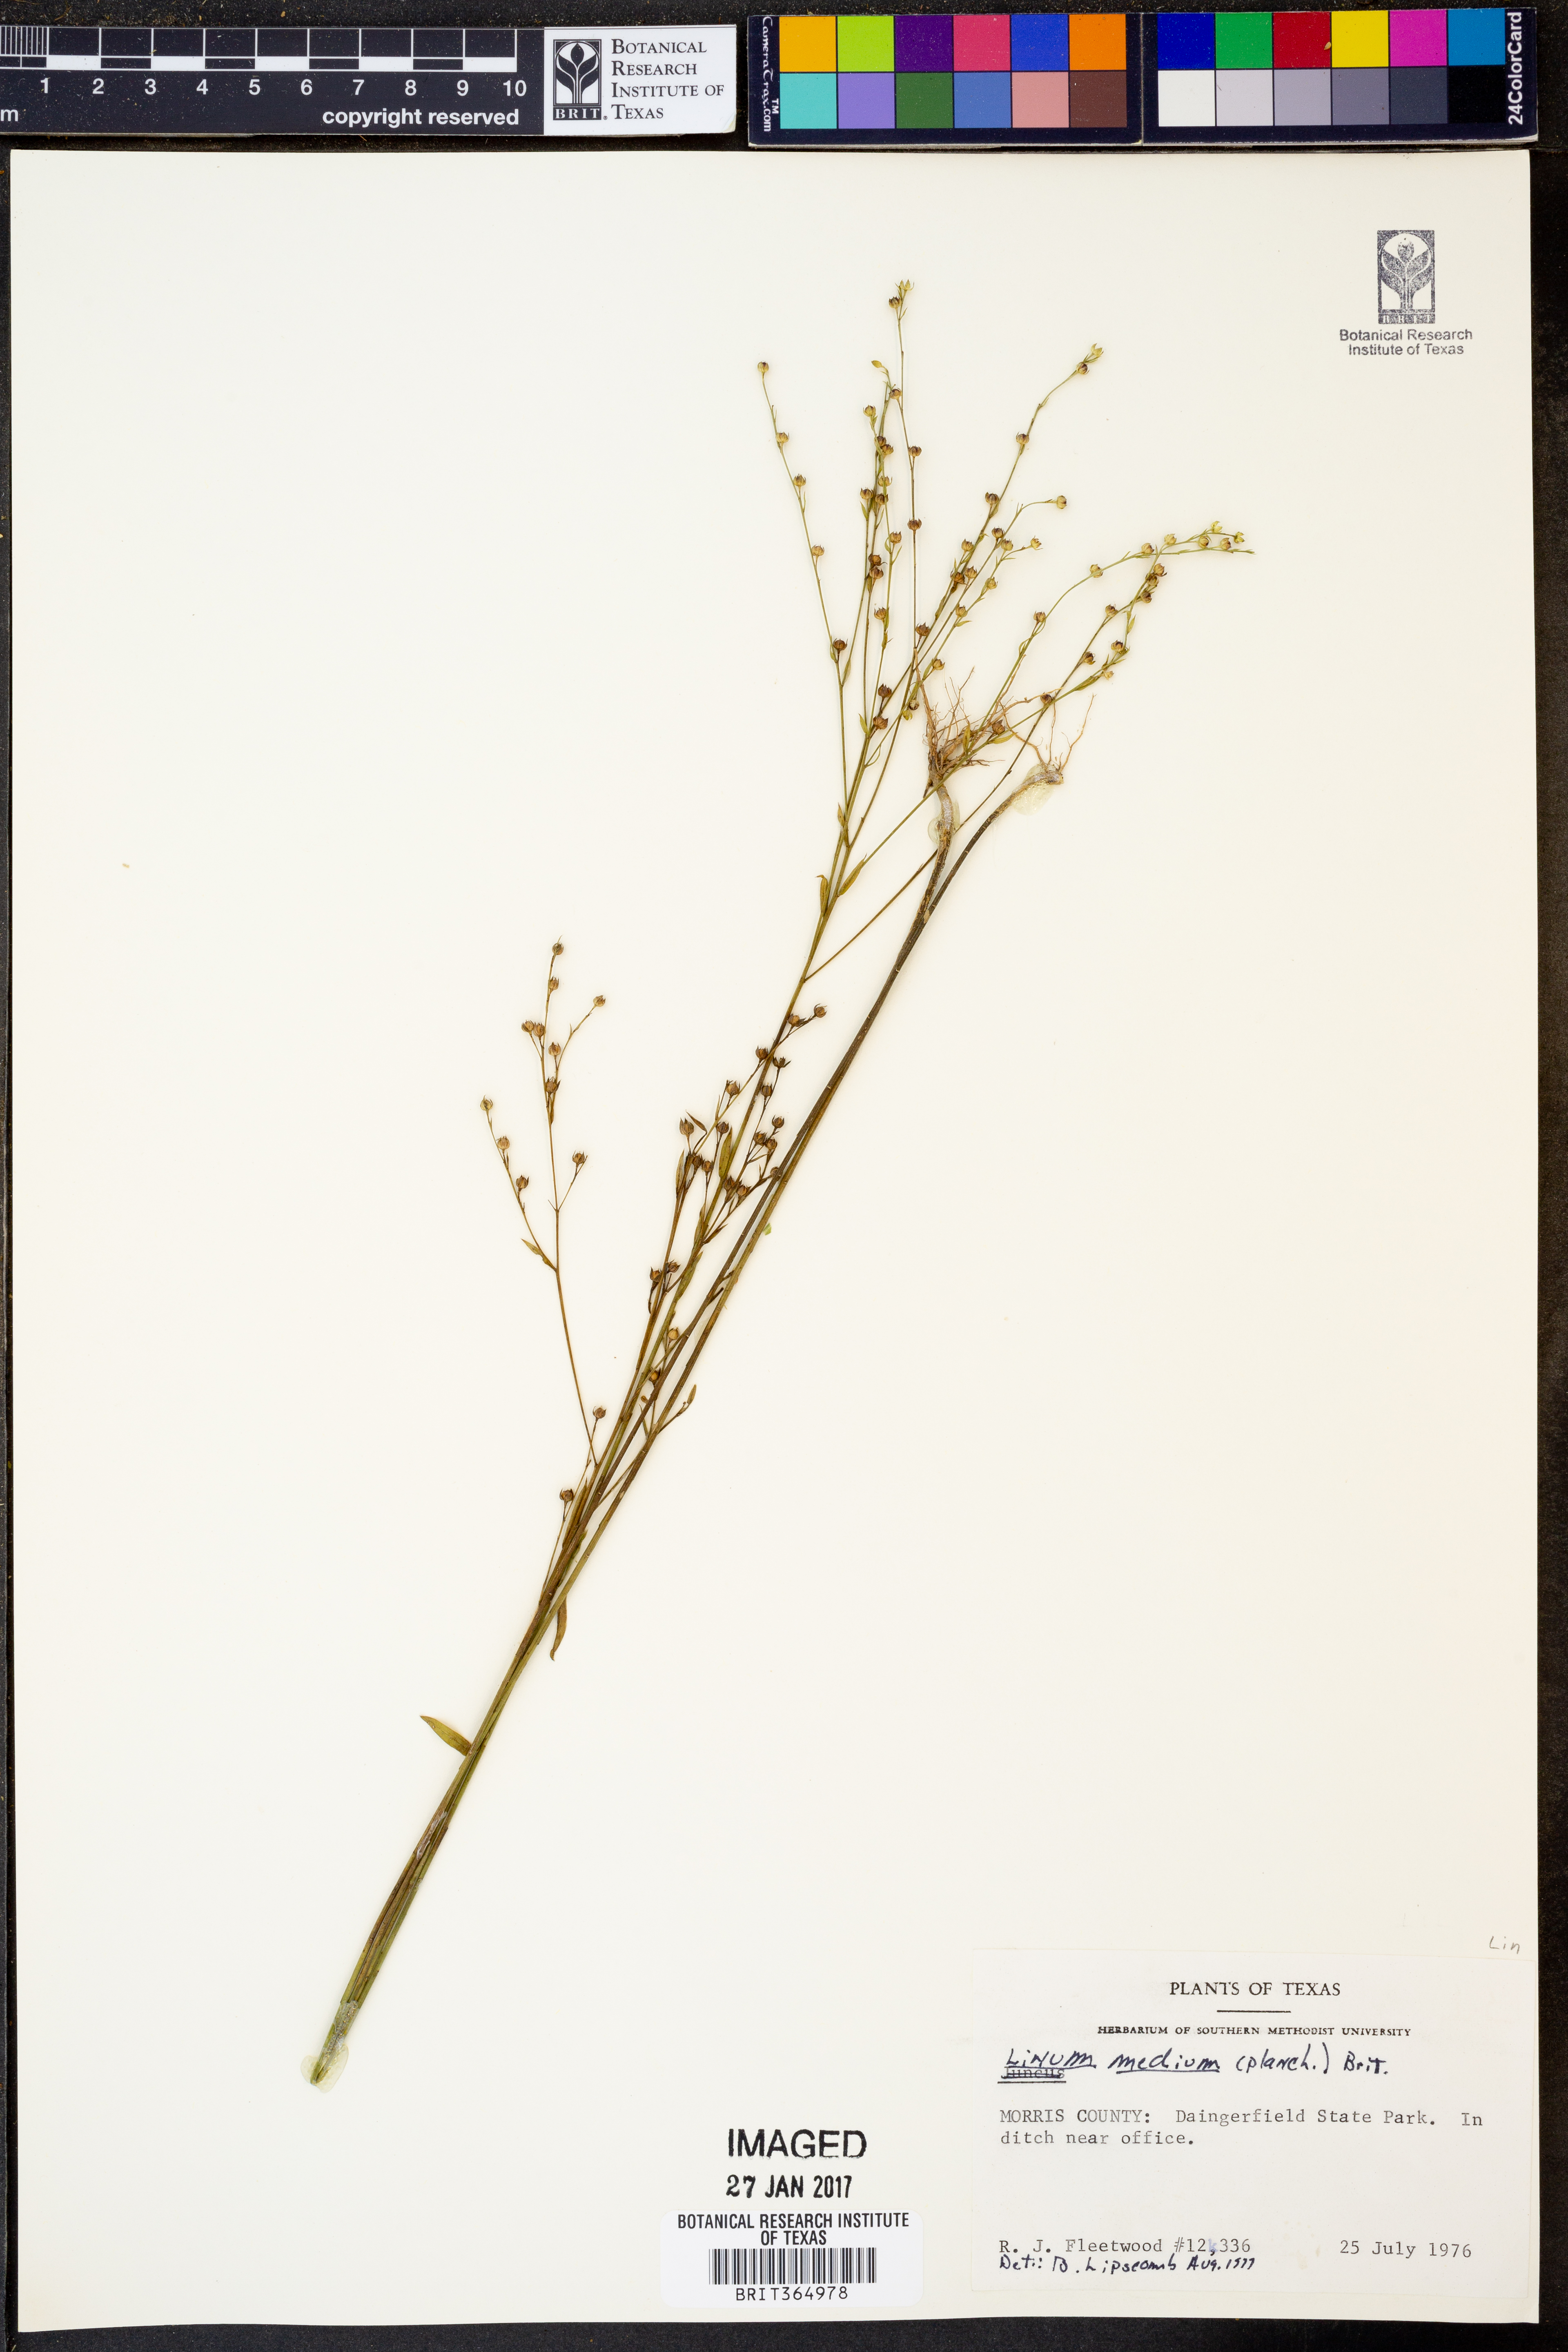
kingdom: Plantae
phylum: Tracheophyta
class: Magnoliopsida
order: Malpighiales
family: Linaceae
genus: Linum
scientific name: Linum medium
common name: Stiff yellow flax
